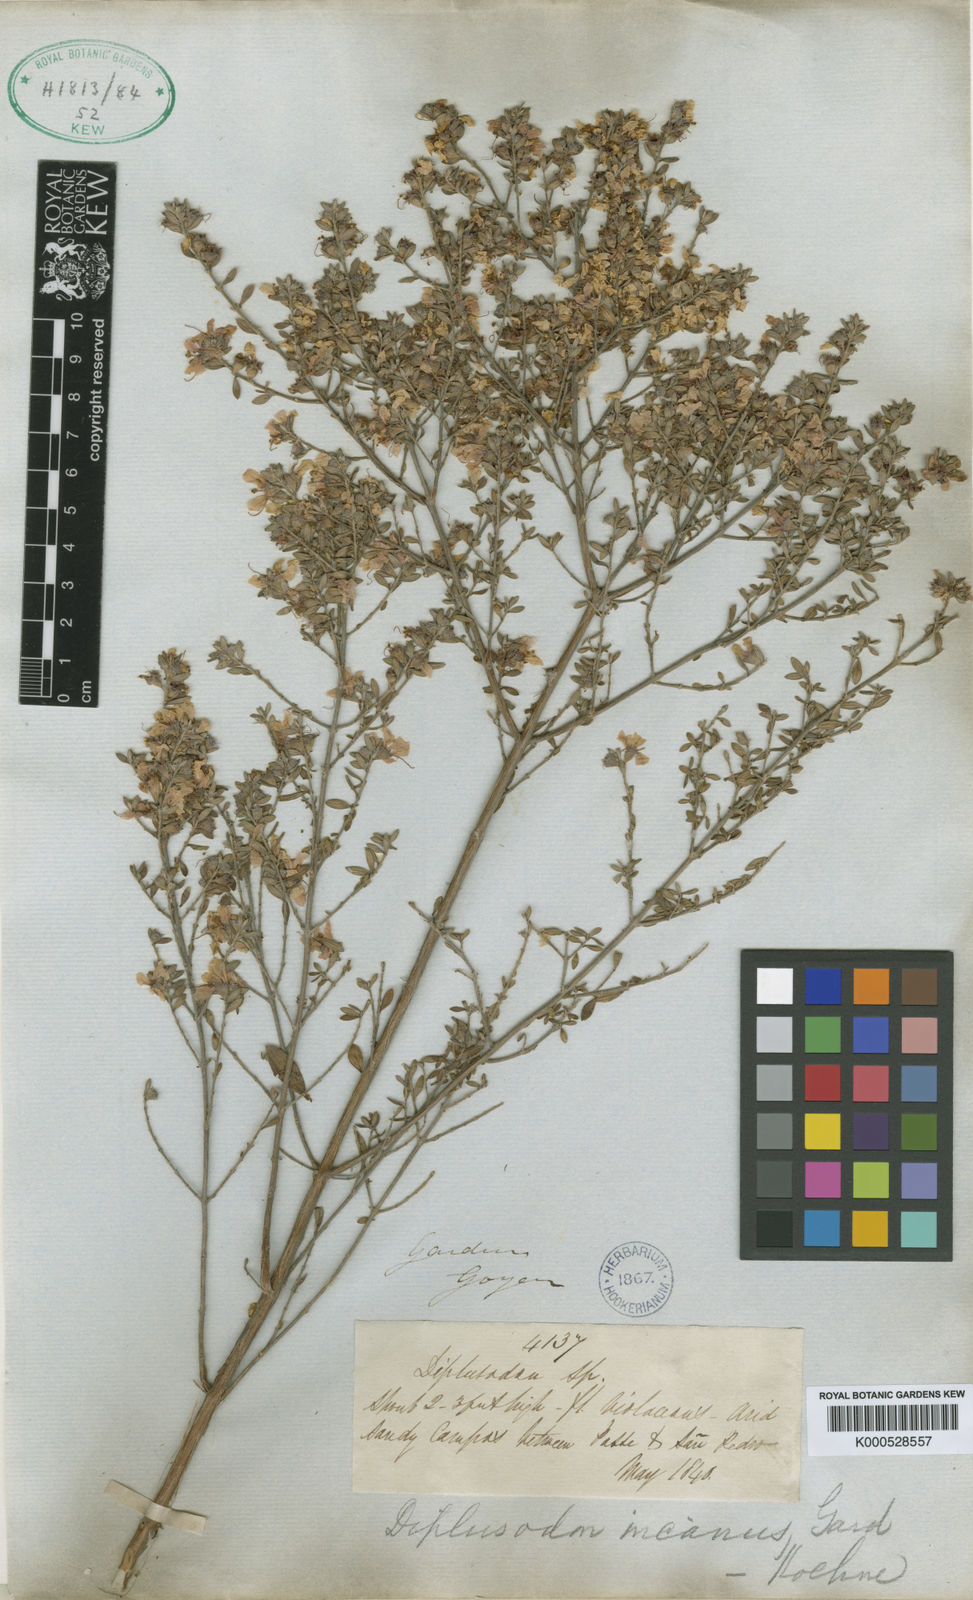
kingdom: Plantae
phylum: Tracheophyta
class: Magnoliopsida
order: Myrtales
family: Lythraceae
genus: Diplusodon
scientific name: Diplusodon incanus
